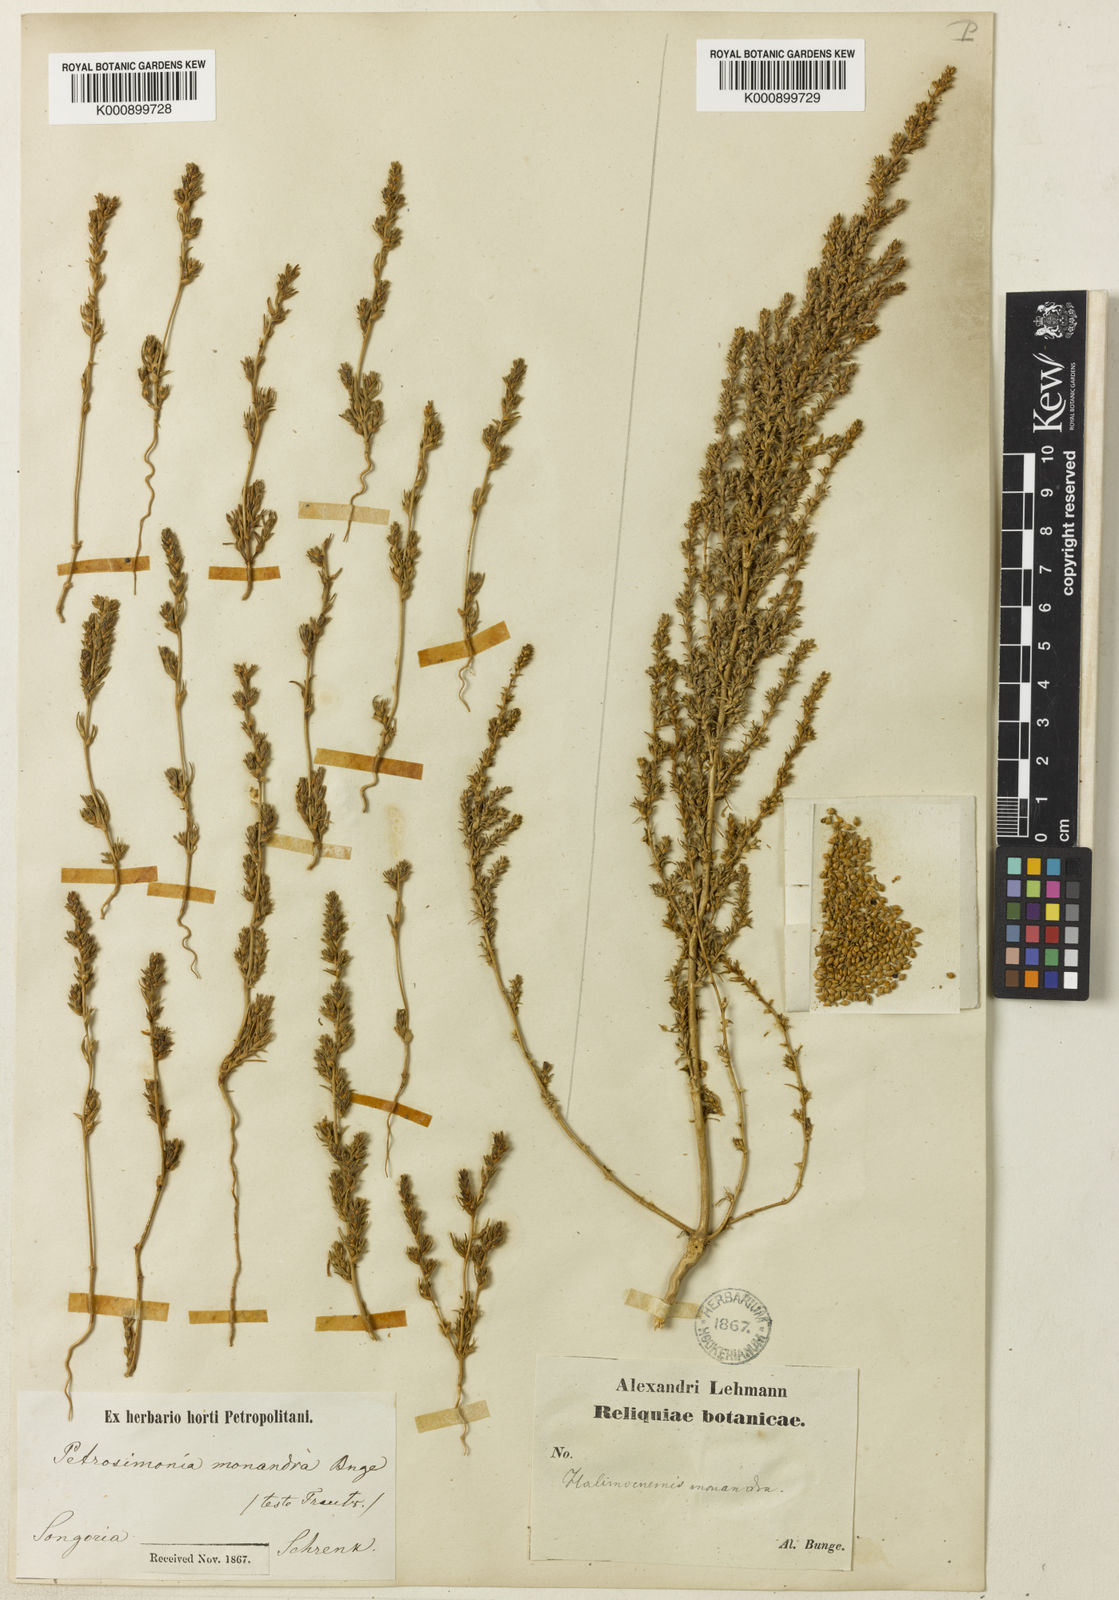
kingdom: Plantae
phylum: Tracheophyta
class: Magnoliopsida
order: Caryophyllales
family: Amaranthaceae
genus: Petrosimonia
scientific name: Petrosimonia monandra
